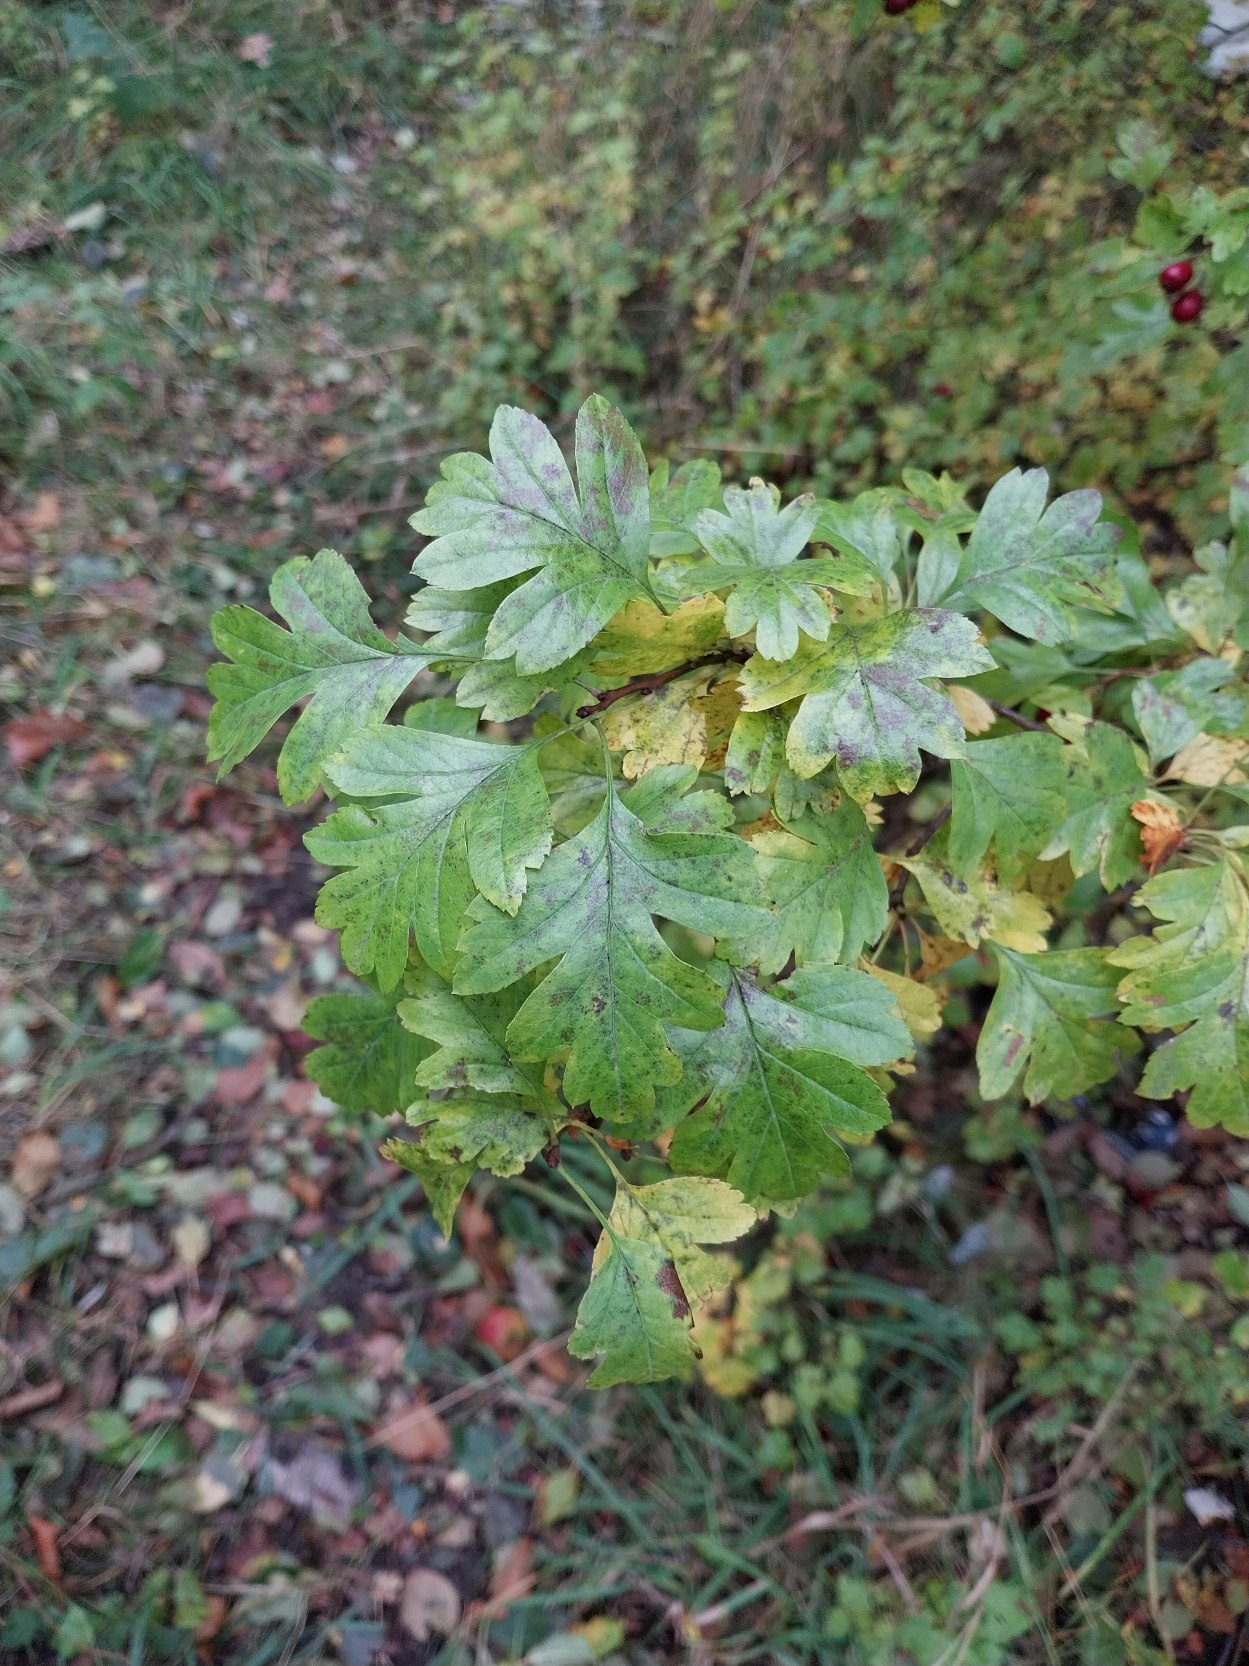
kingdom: Plantae
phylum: Tracheophyta
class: Magnoliopsida
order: Rosales
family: Rosaceae
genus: Crataegus
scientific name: Crataegus monogyna
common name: Engriflet hvidtjørn
